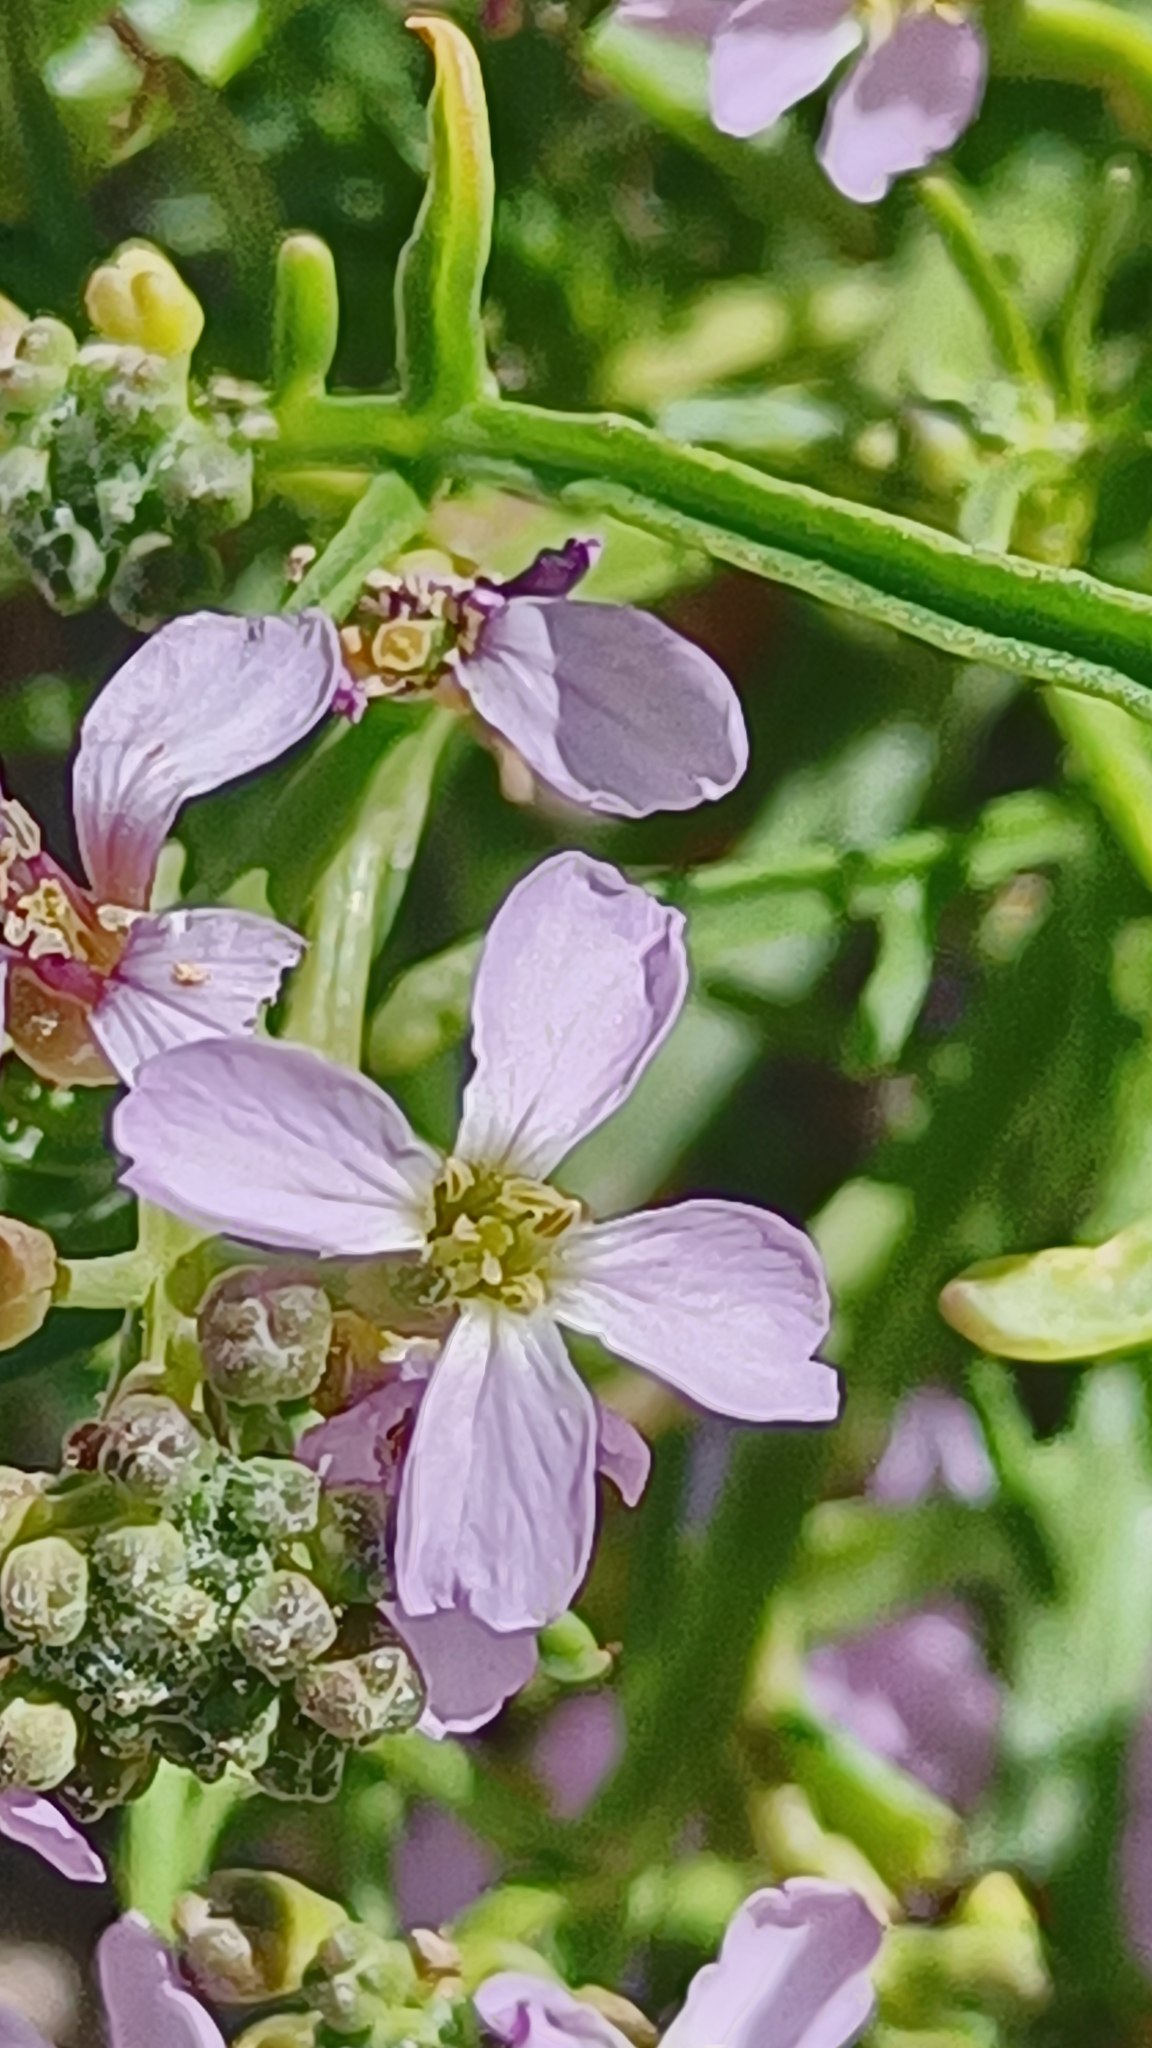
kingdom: Plantae
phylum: Tracheophyta
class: Magnoliopsida
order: Brassicales
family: Brassicaceae
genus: Cakile
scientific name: Cakile maritima
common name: Strandsennep
